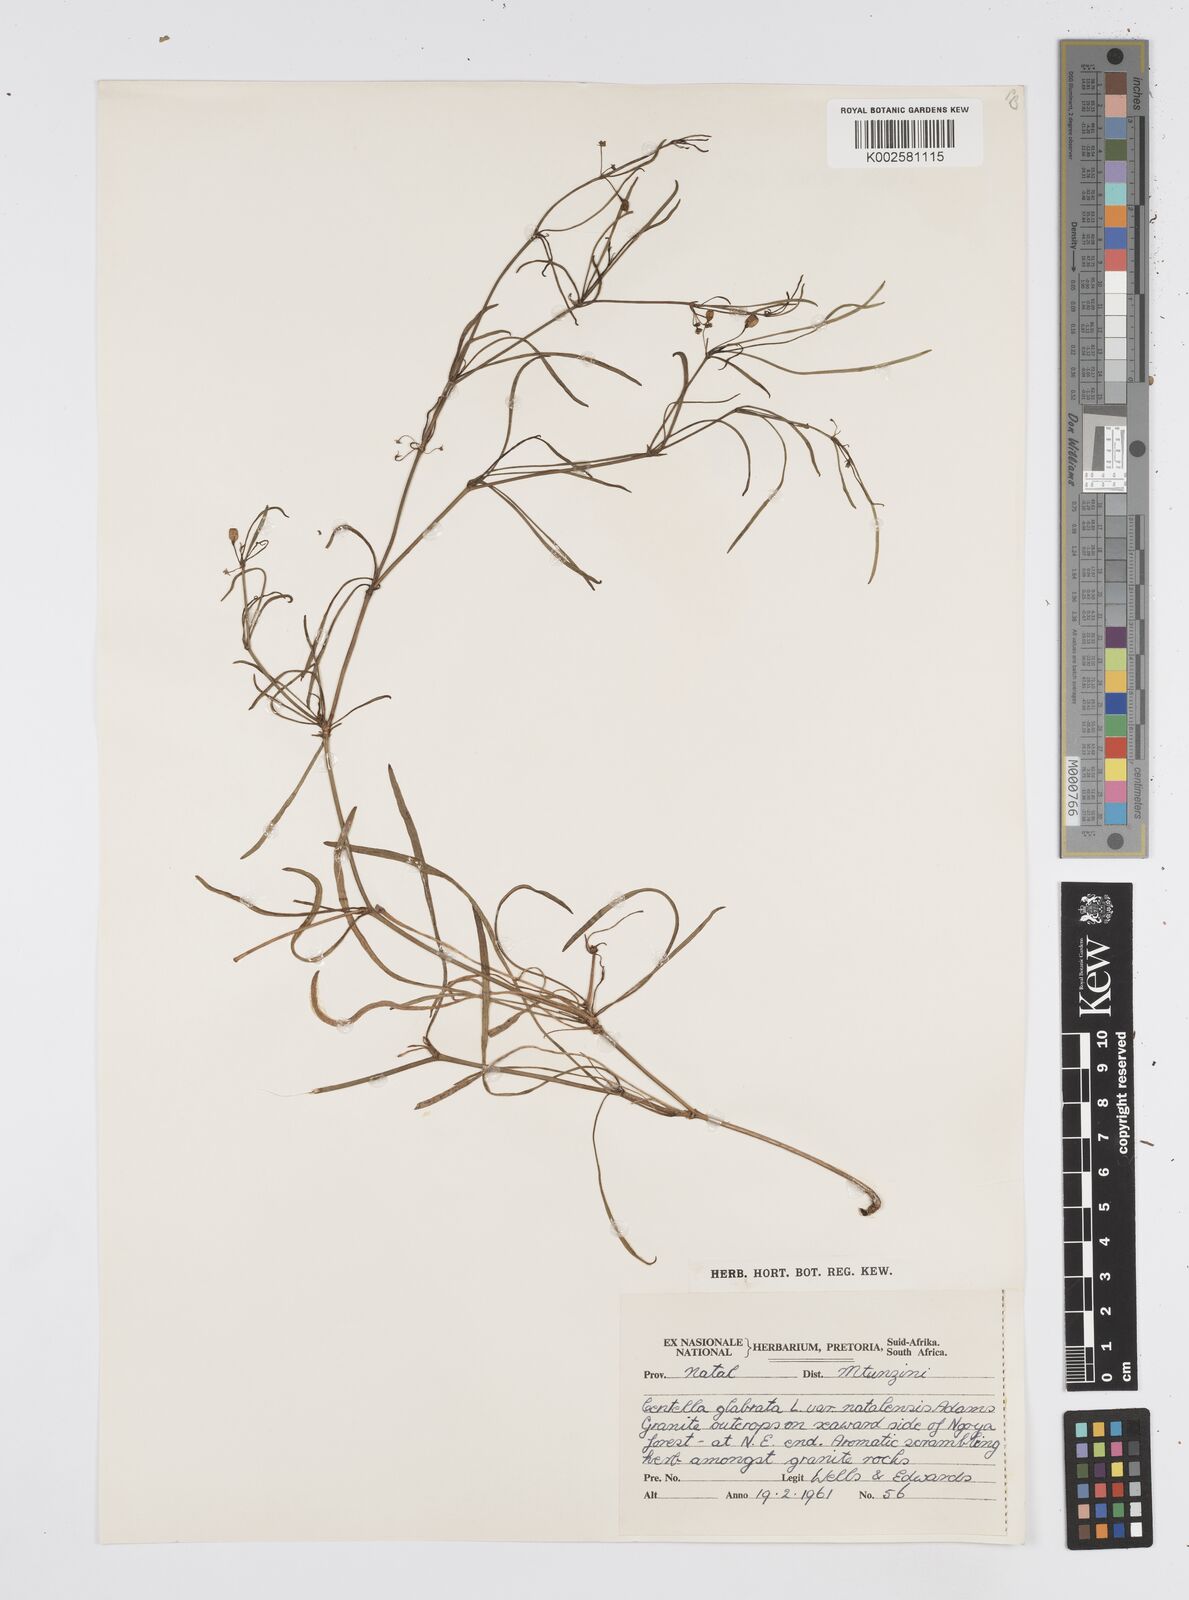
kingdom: Plantae
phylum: Tracheophyta
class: Magnoliopsida
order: Apiales
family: Apiaceae
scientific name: Apiaceae
